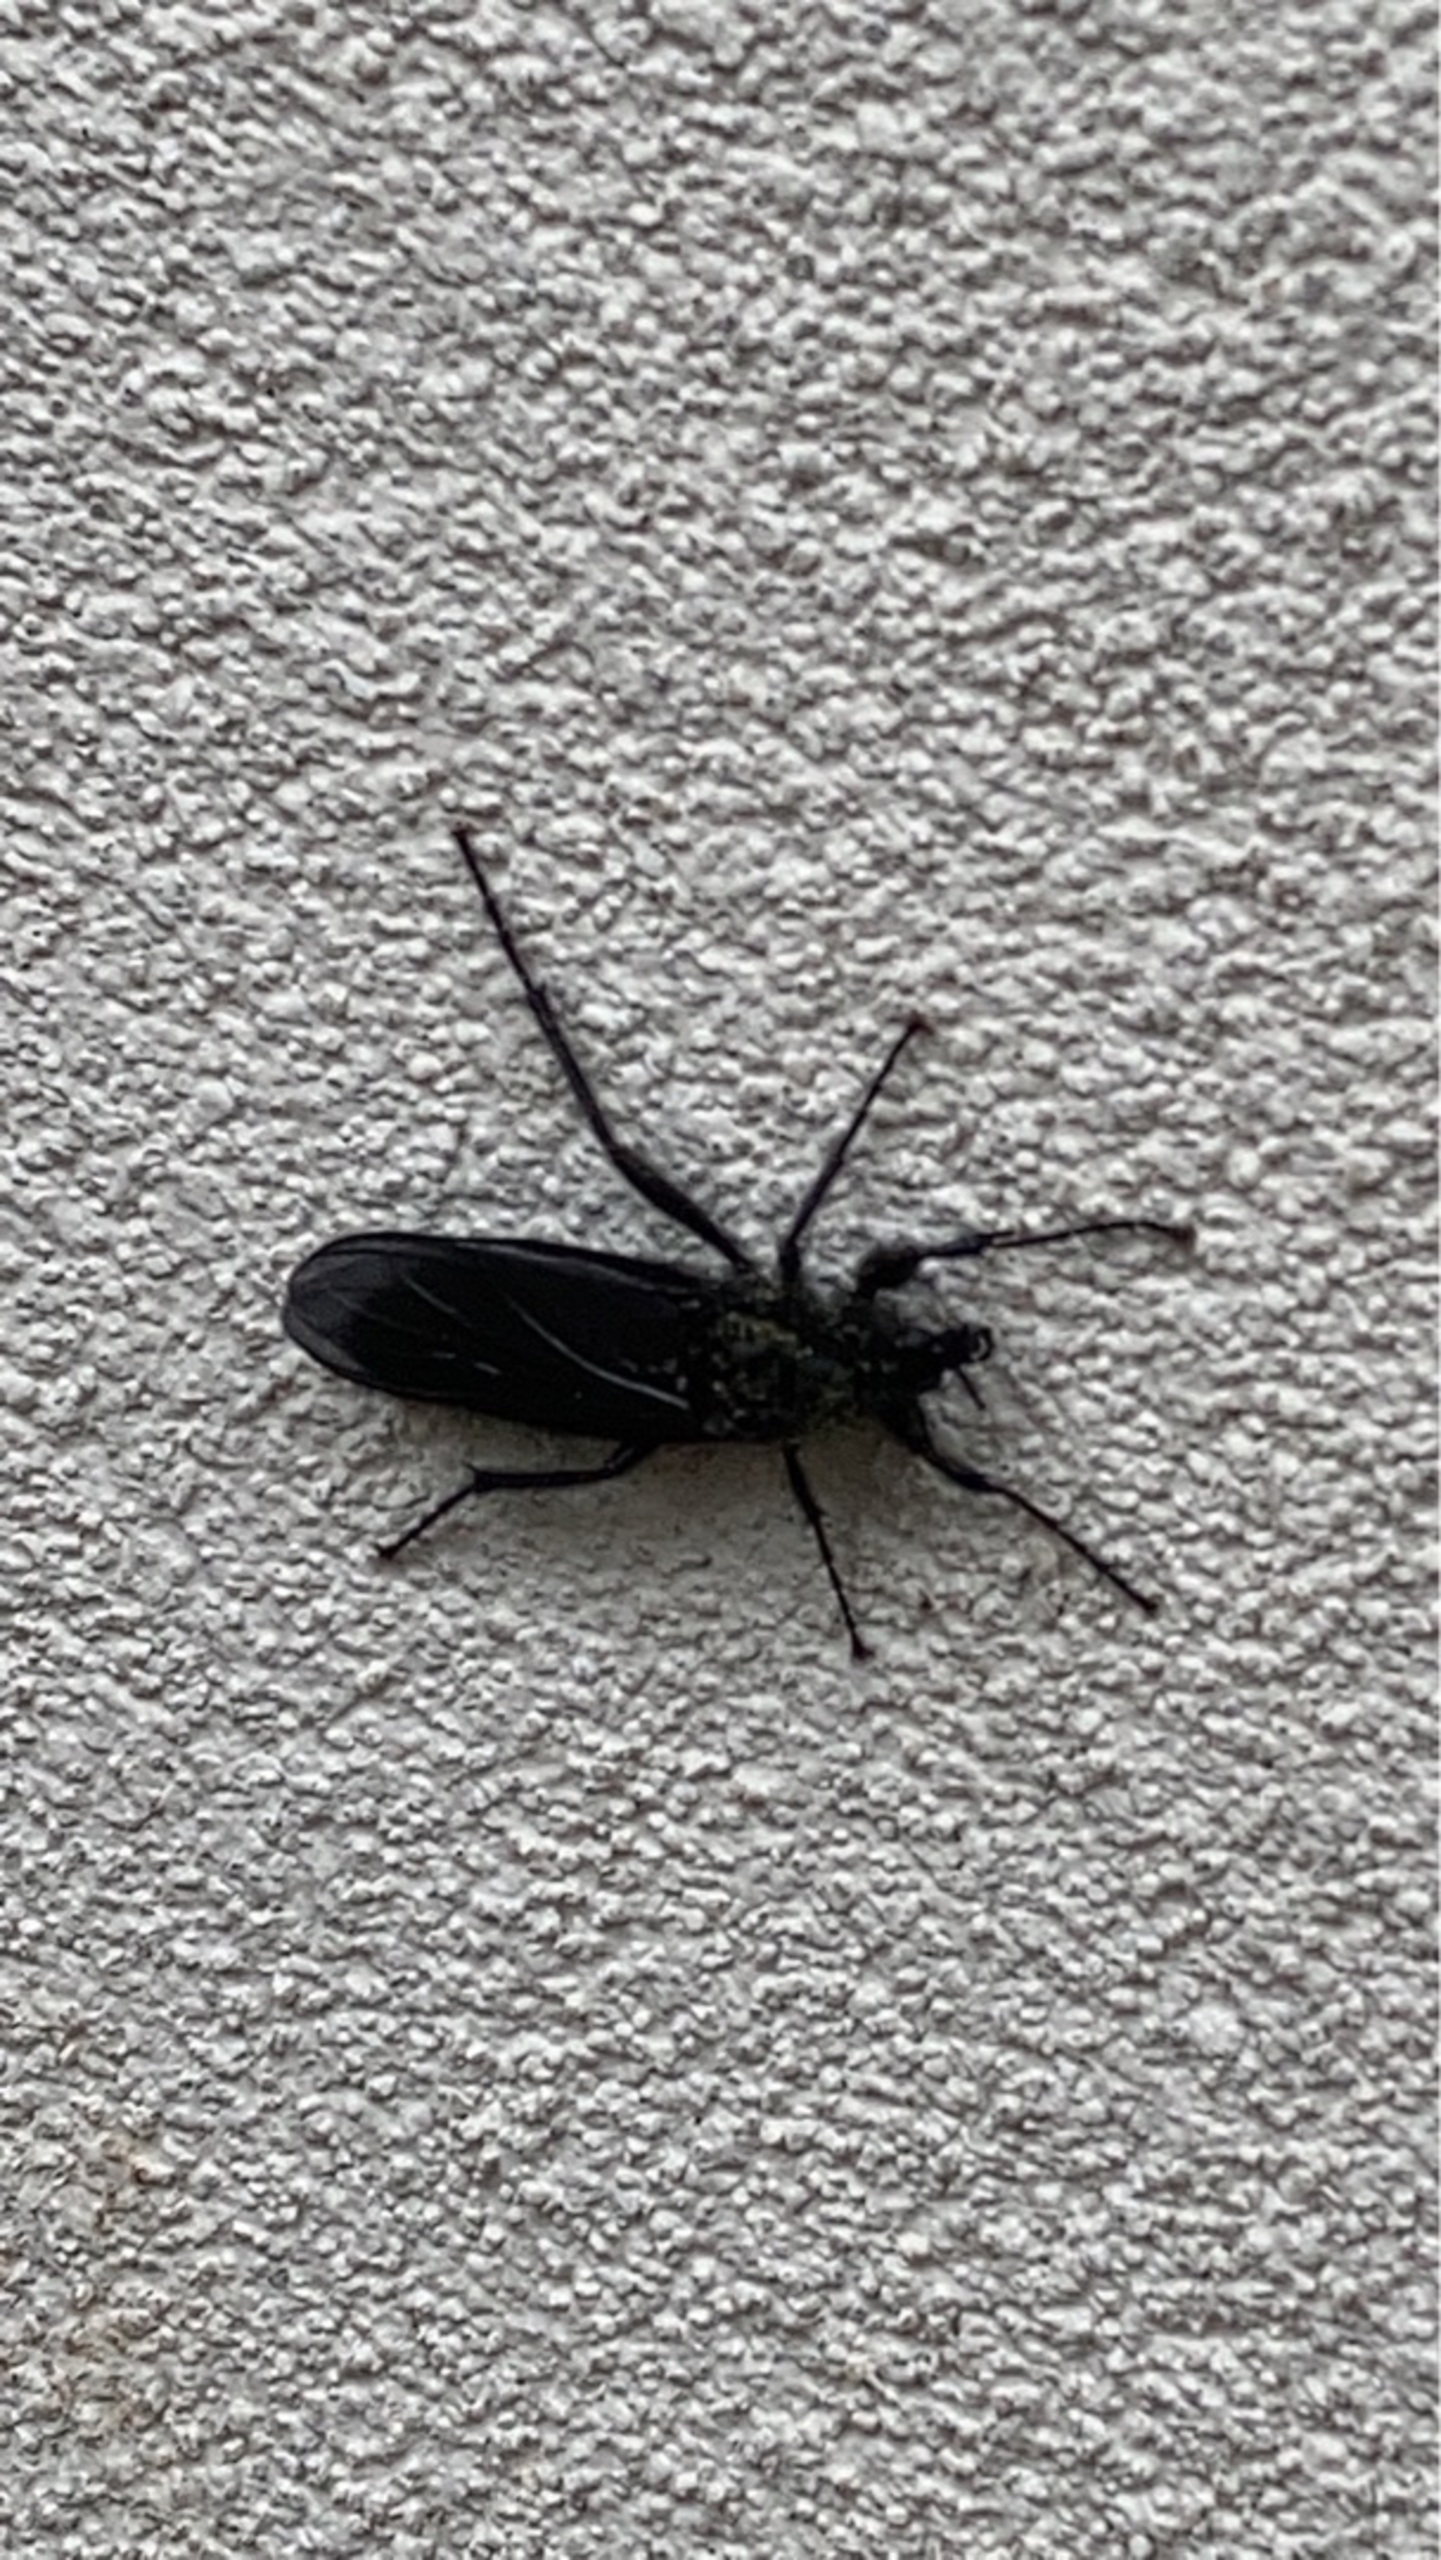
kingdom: Animalia
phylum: Arthropoda
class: Insecta
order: Diptera
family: Bibionidae
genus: Bibio
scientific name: Bibio marci
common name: Skovhårmyg
